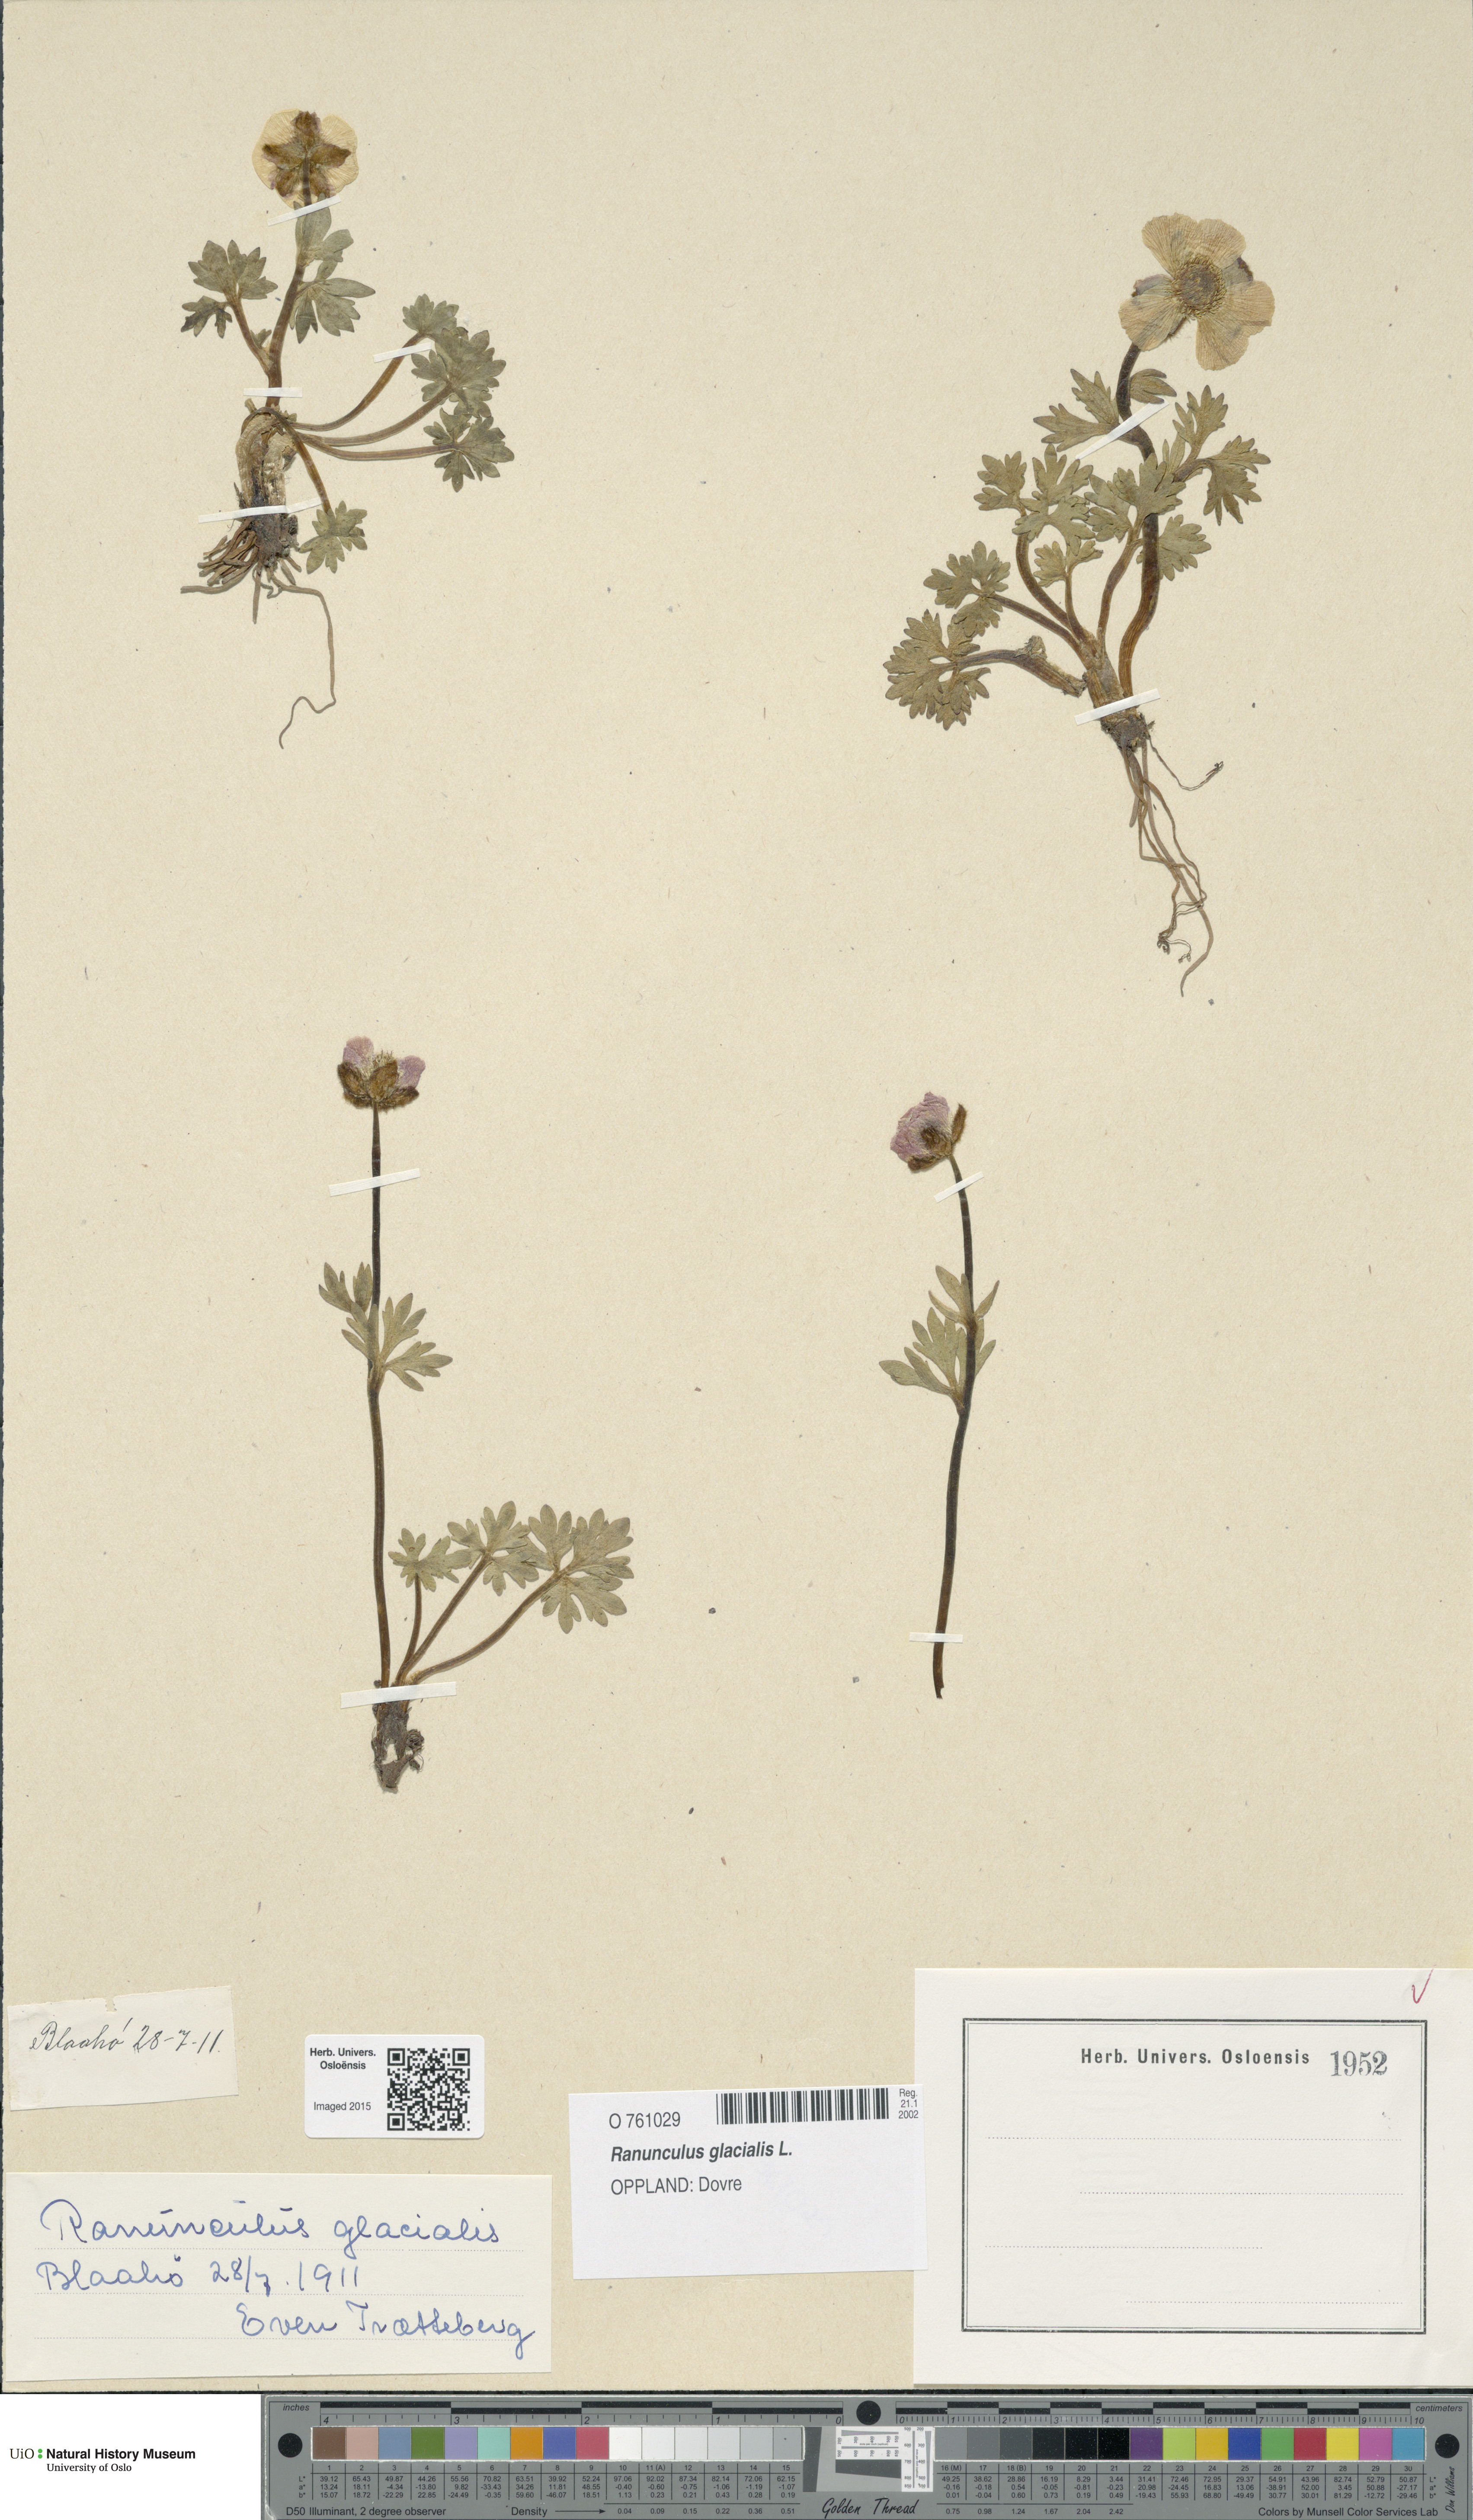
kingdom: Plantae
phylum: Tracheophyta
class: Magnoliopsida
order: Ranunculales
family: Ranunculaceae
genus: Ranunculus
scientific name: Ranunculus glacialis
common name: Glacier buttercup
